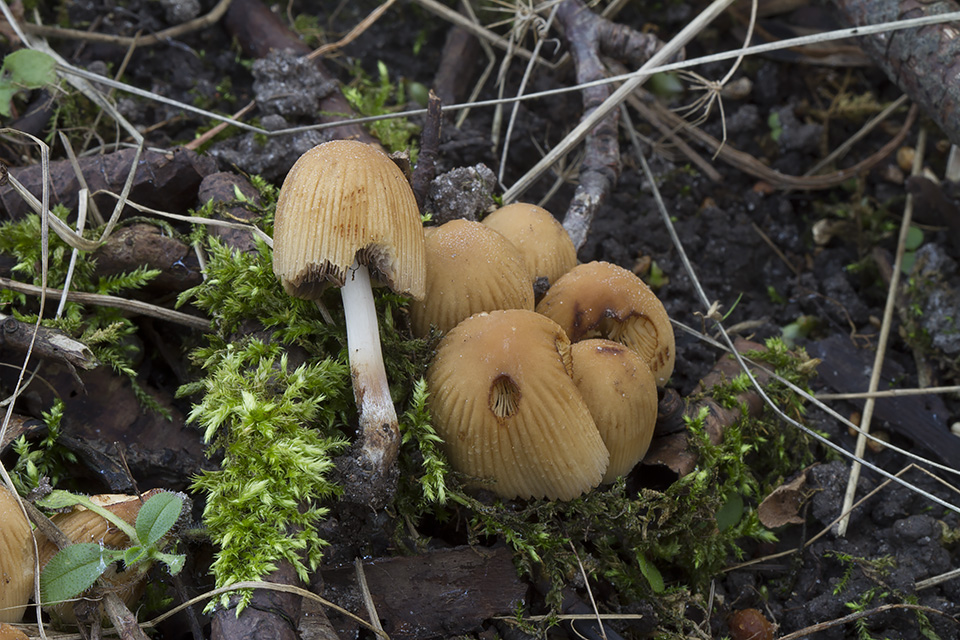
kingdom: Fungi
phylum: Basidiomycota
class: Agaricomycetes
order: Agaricales
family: Psathyrellaceae
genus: Coprinellus
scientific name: Coprinellus micaceus
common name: glimmer-blækhat
